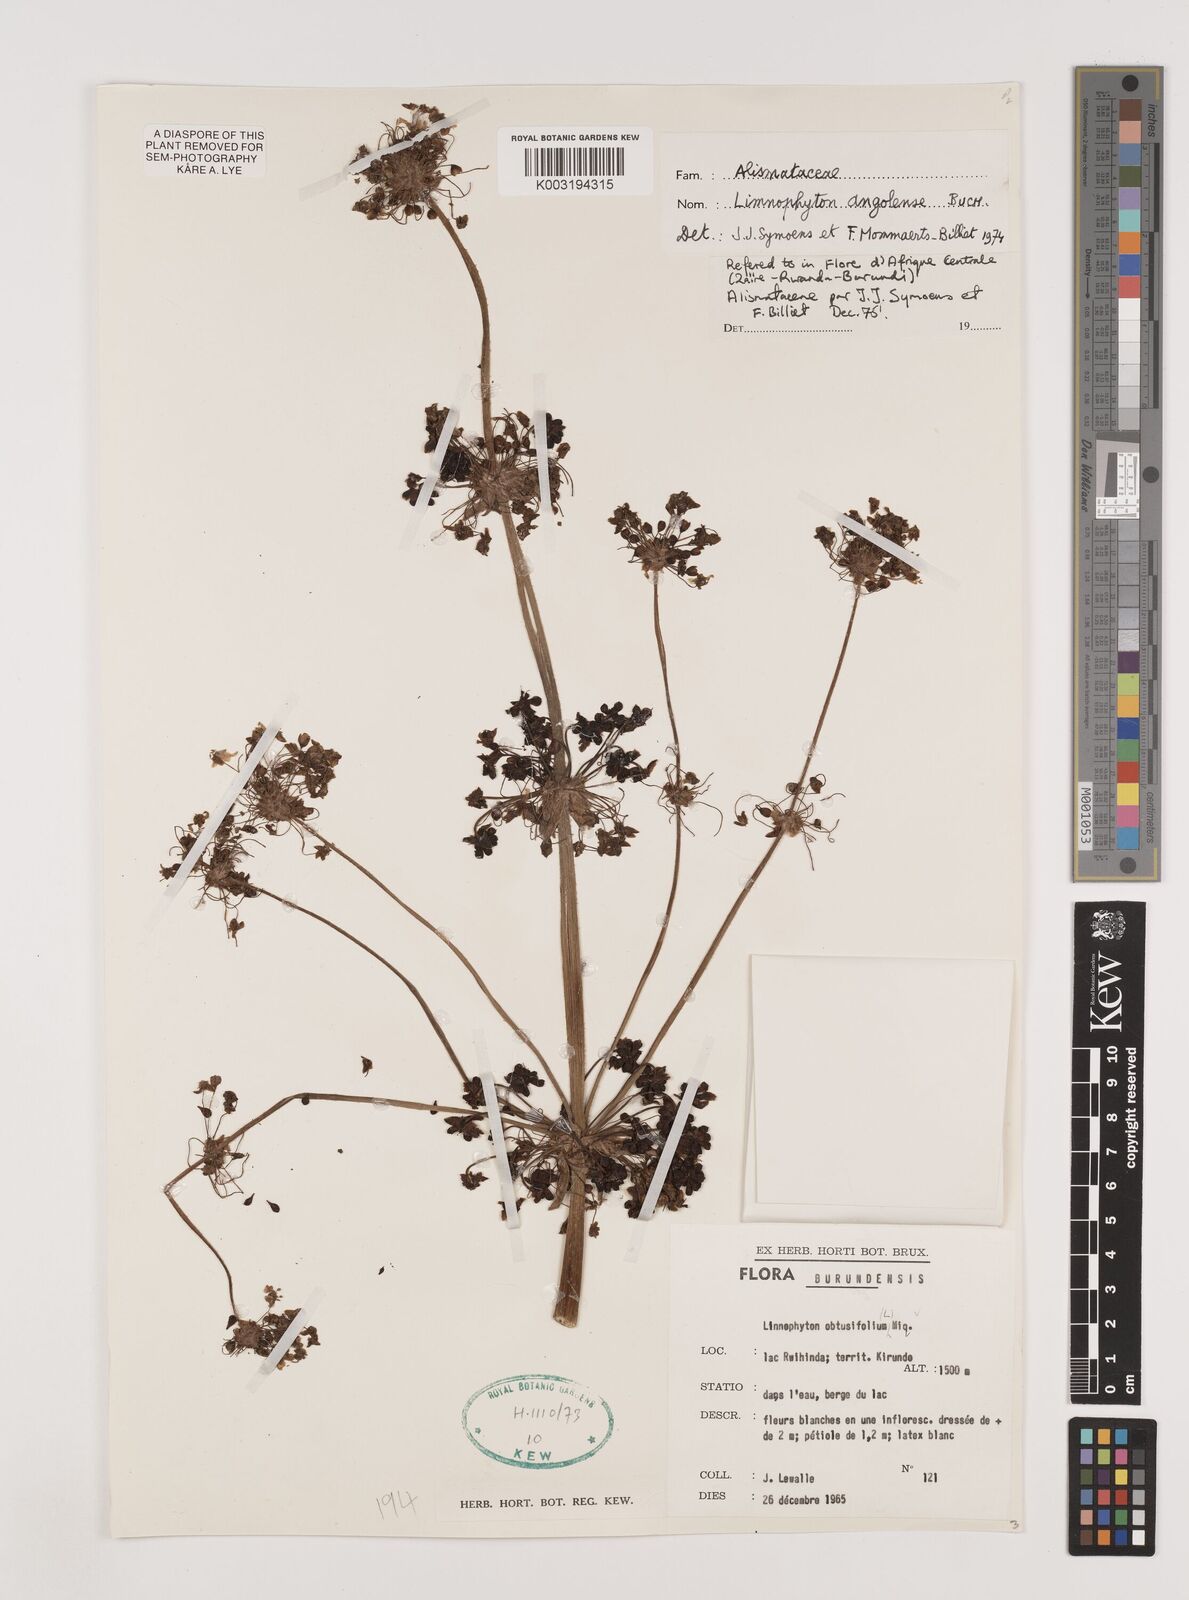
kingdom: Plantae
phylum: Tracheophyta
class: Liliopsida
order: Alismatales
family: Alismataceae
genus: Limnophyton
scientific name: Limnophyton angolense
